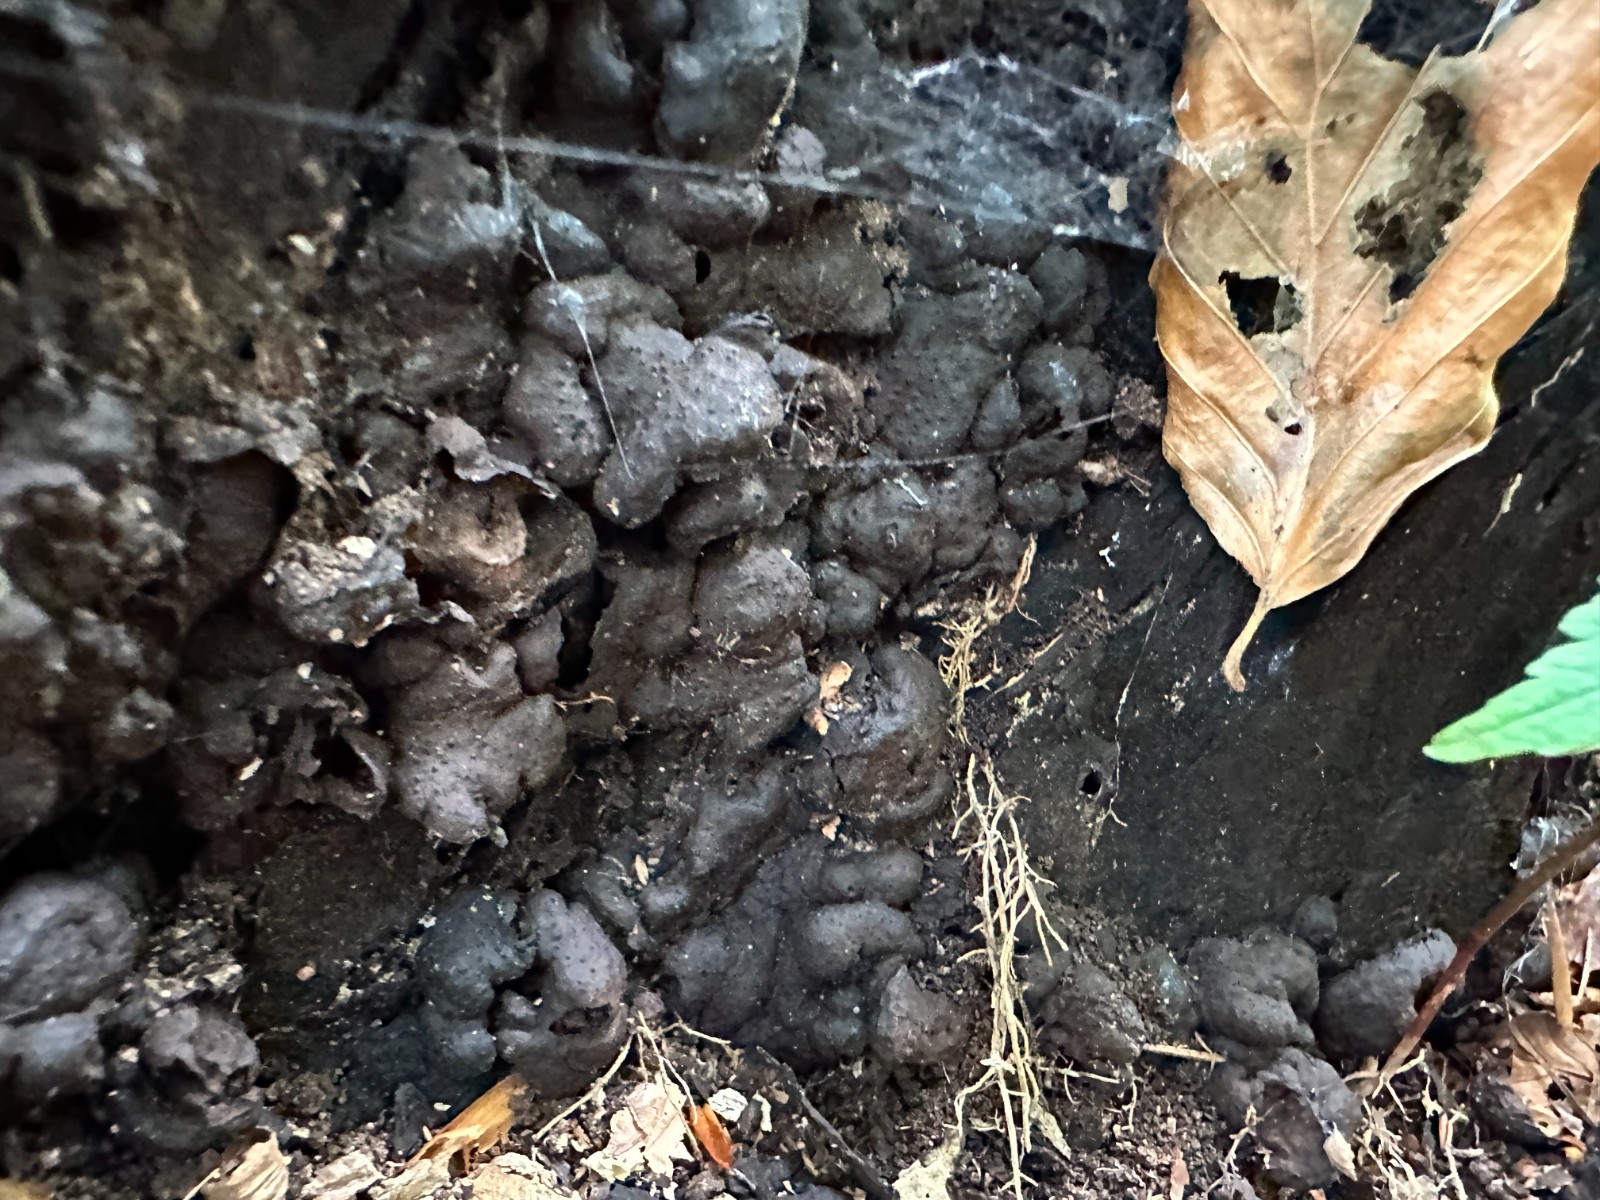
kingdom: Fungi
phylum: Ascomycota
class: Sordariomycetes
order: Xylariales
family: Xylariaceae
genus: Kretzschmaria
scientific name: Kretzschmaria deusta
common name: stor kulsvamp
